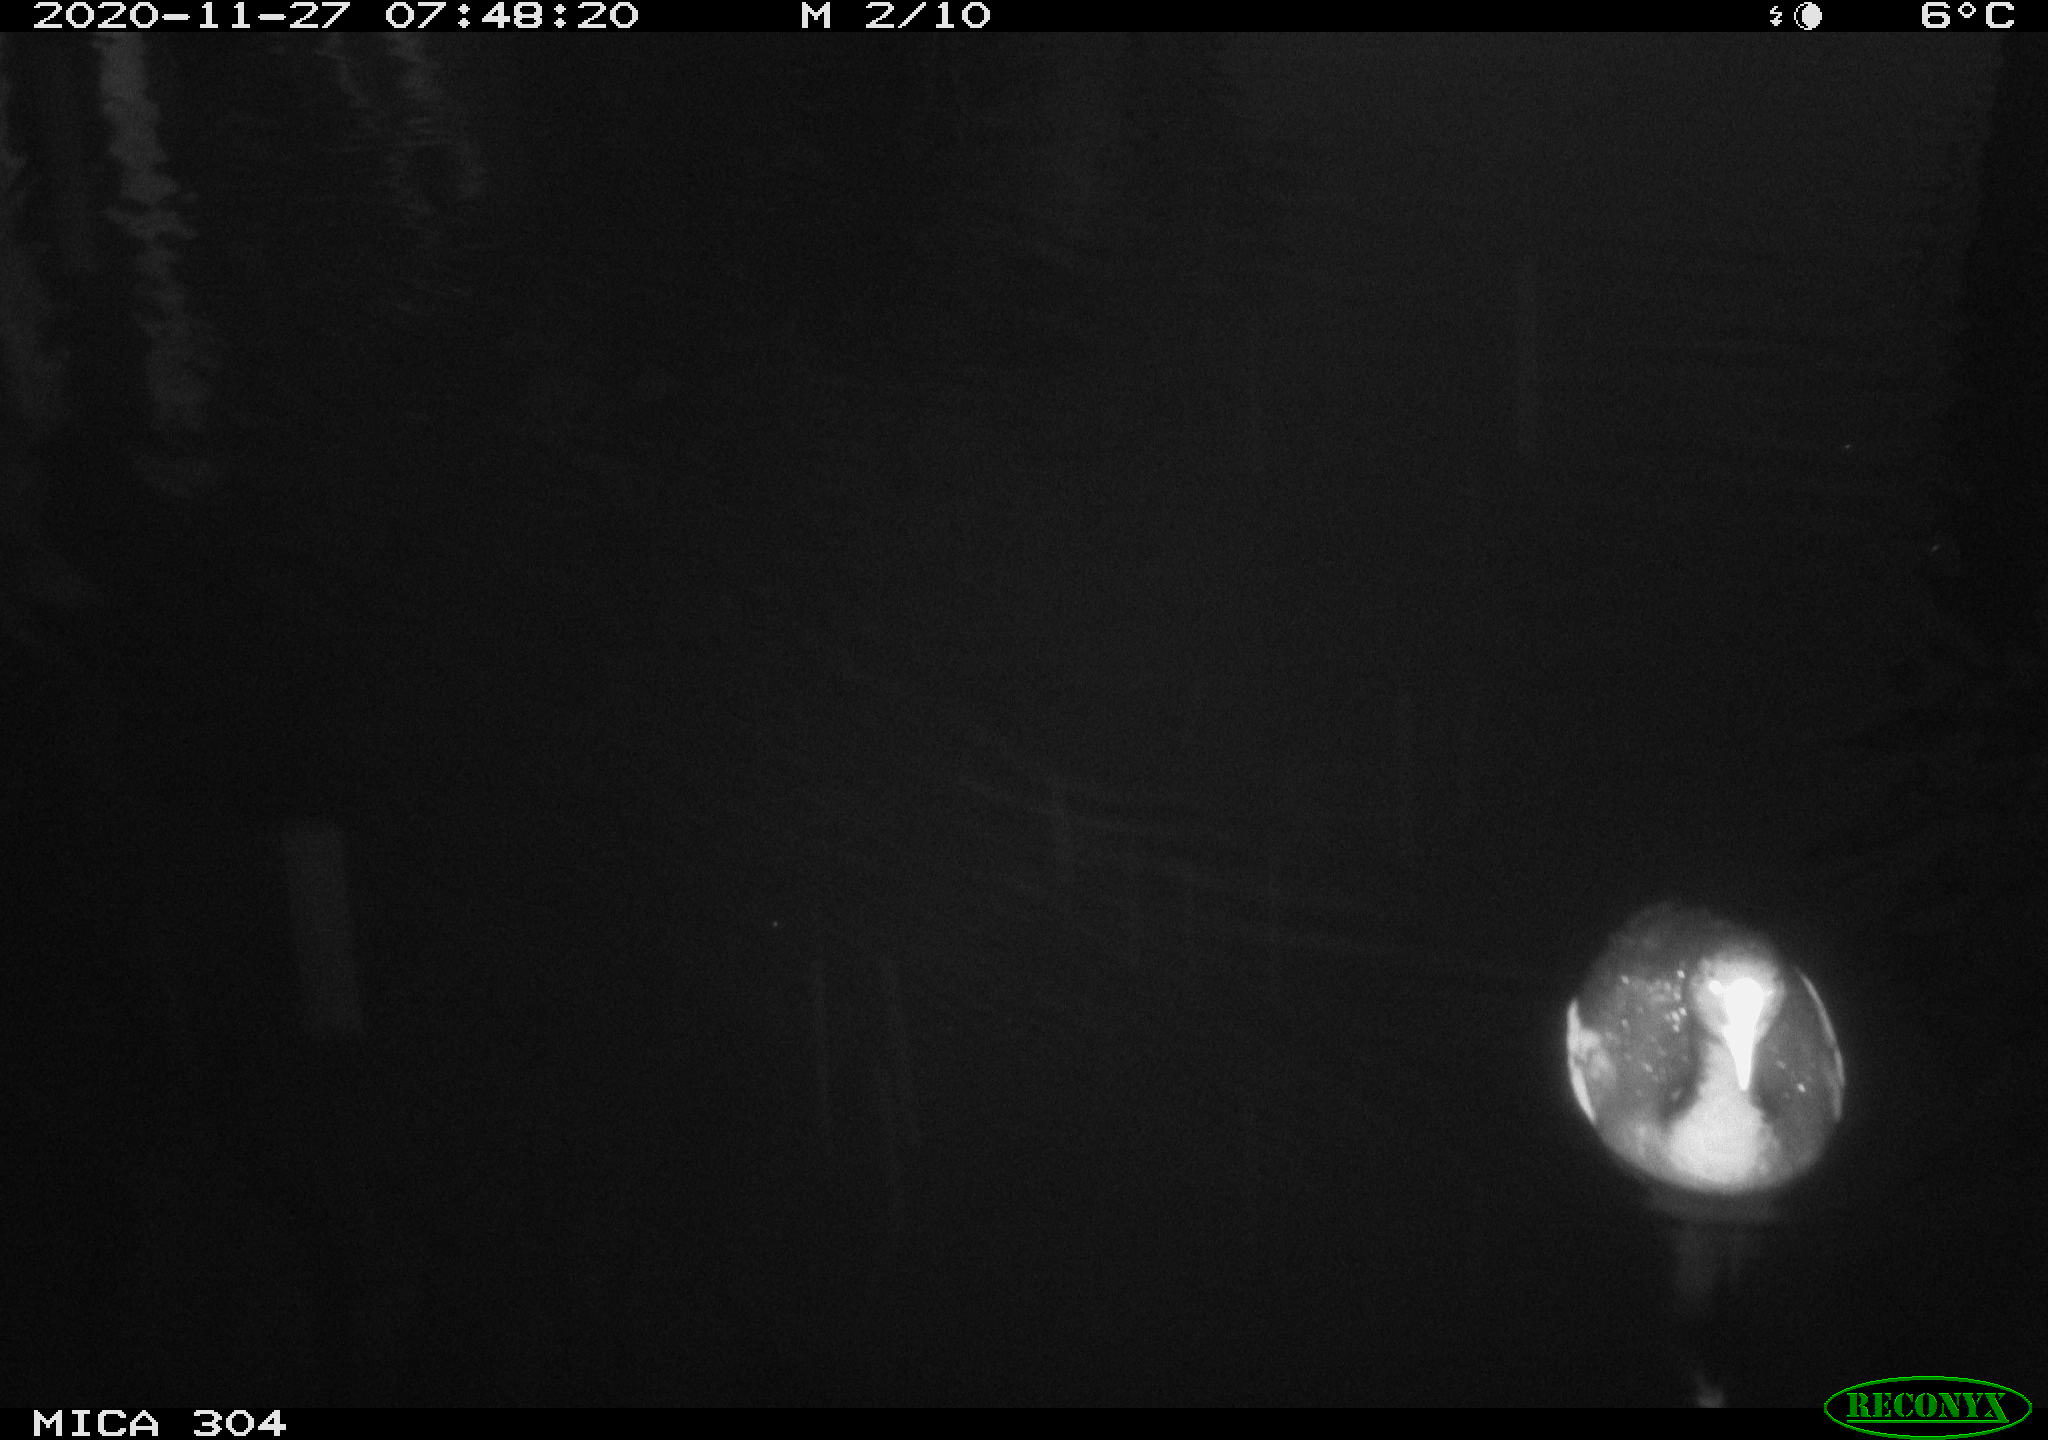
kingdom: Animalia
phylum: Chordata
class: Aves
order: Gruiformes
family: Rallidae
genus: Fulica
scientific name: Fulica atra
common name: Eurasian coot
